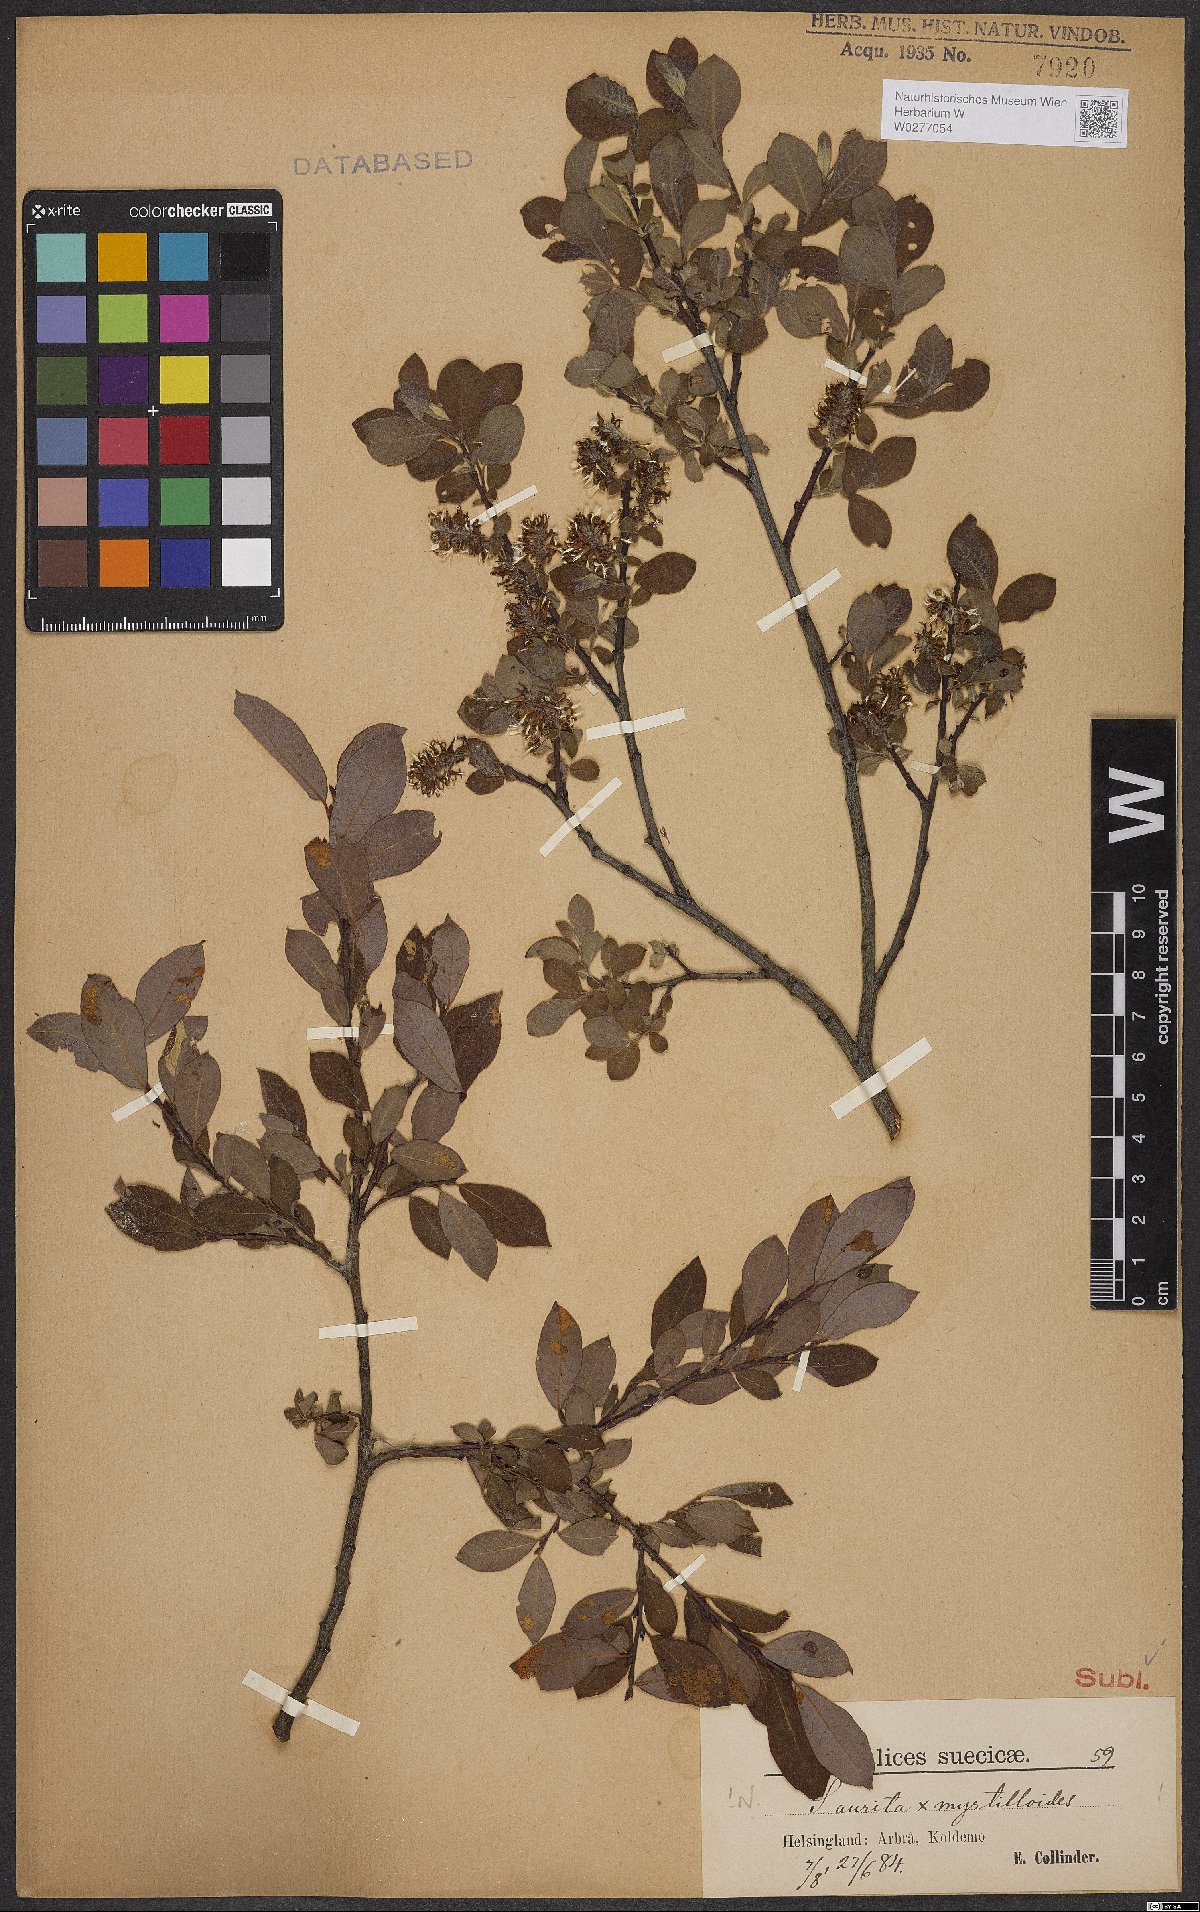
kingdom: Plantae
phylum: Tracheophyta
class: Magnoliopsida
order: Malpighiales
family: Salicaceae
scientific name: Salicaceae
